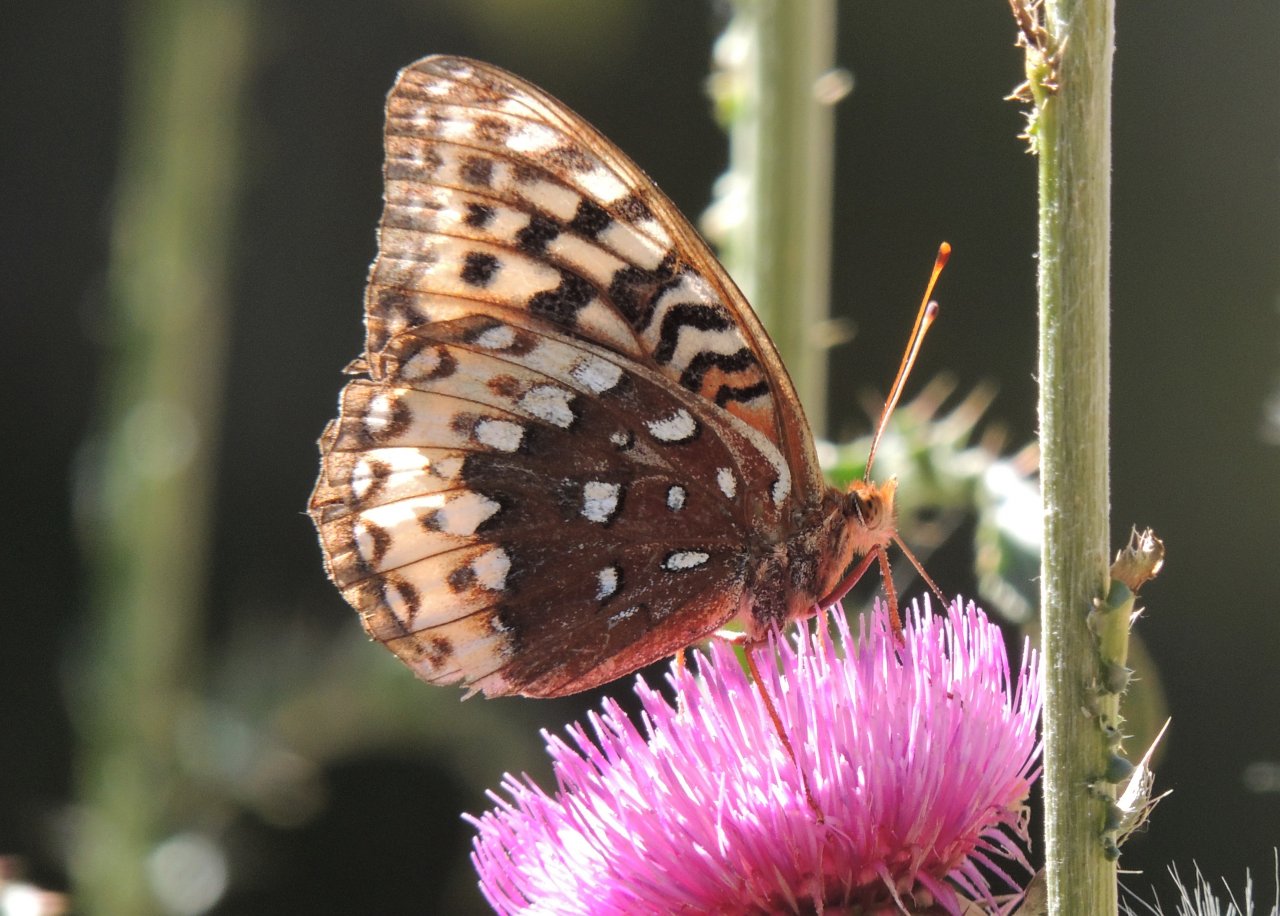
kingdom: Animalia
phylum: Arthropoda
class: Insecta
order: Lepidoptera
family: Nymphalidae
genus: Speyeria
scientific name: Speyeria cybele
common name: Great Spangled Fritillary
